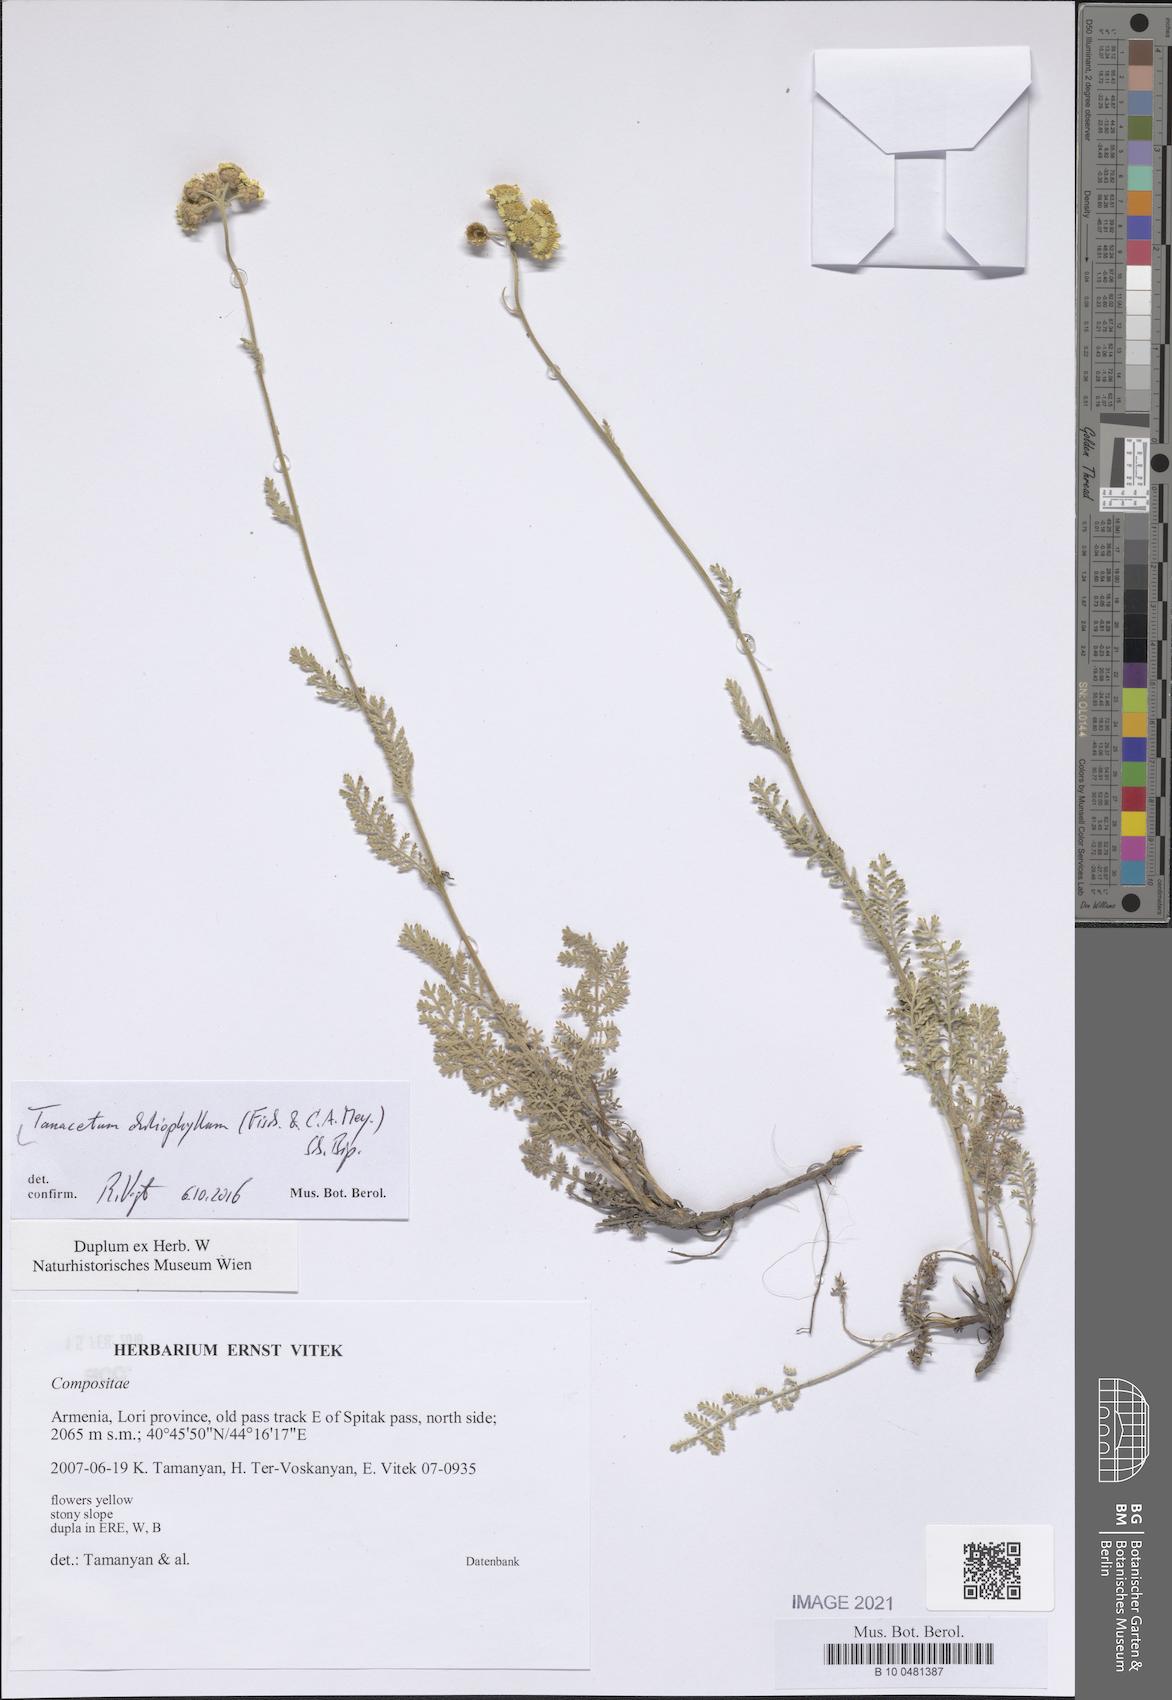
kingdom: Plantae
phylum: Tracheophyta
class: Magnoliopsida
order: Asterales
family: Asteraceae
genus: Tanacetum
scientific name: Tanacetum aureum
